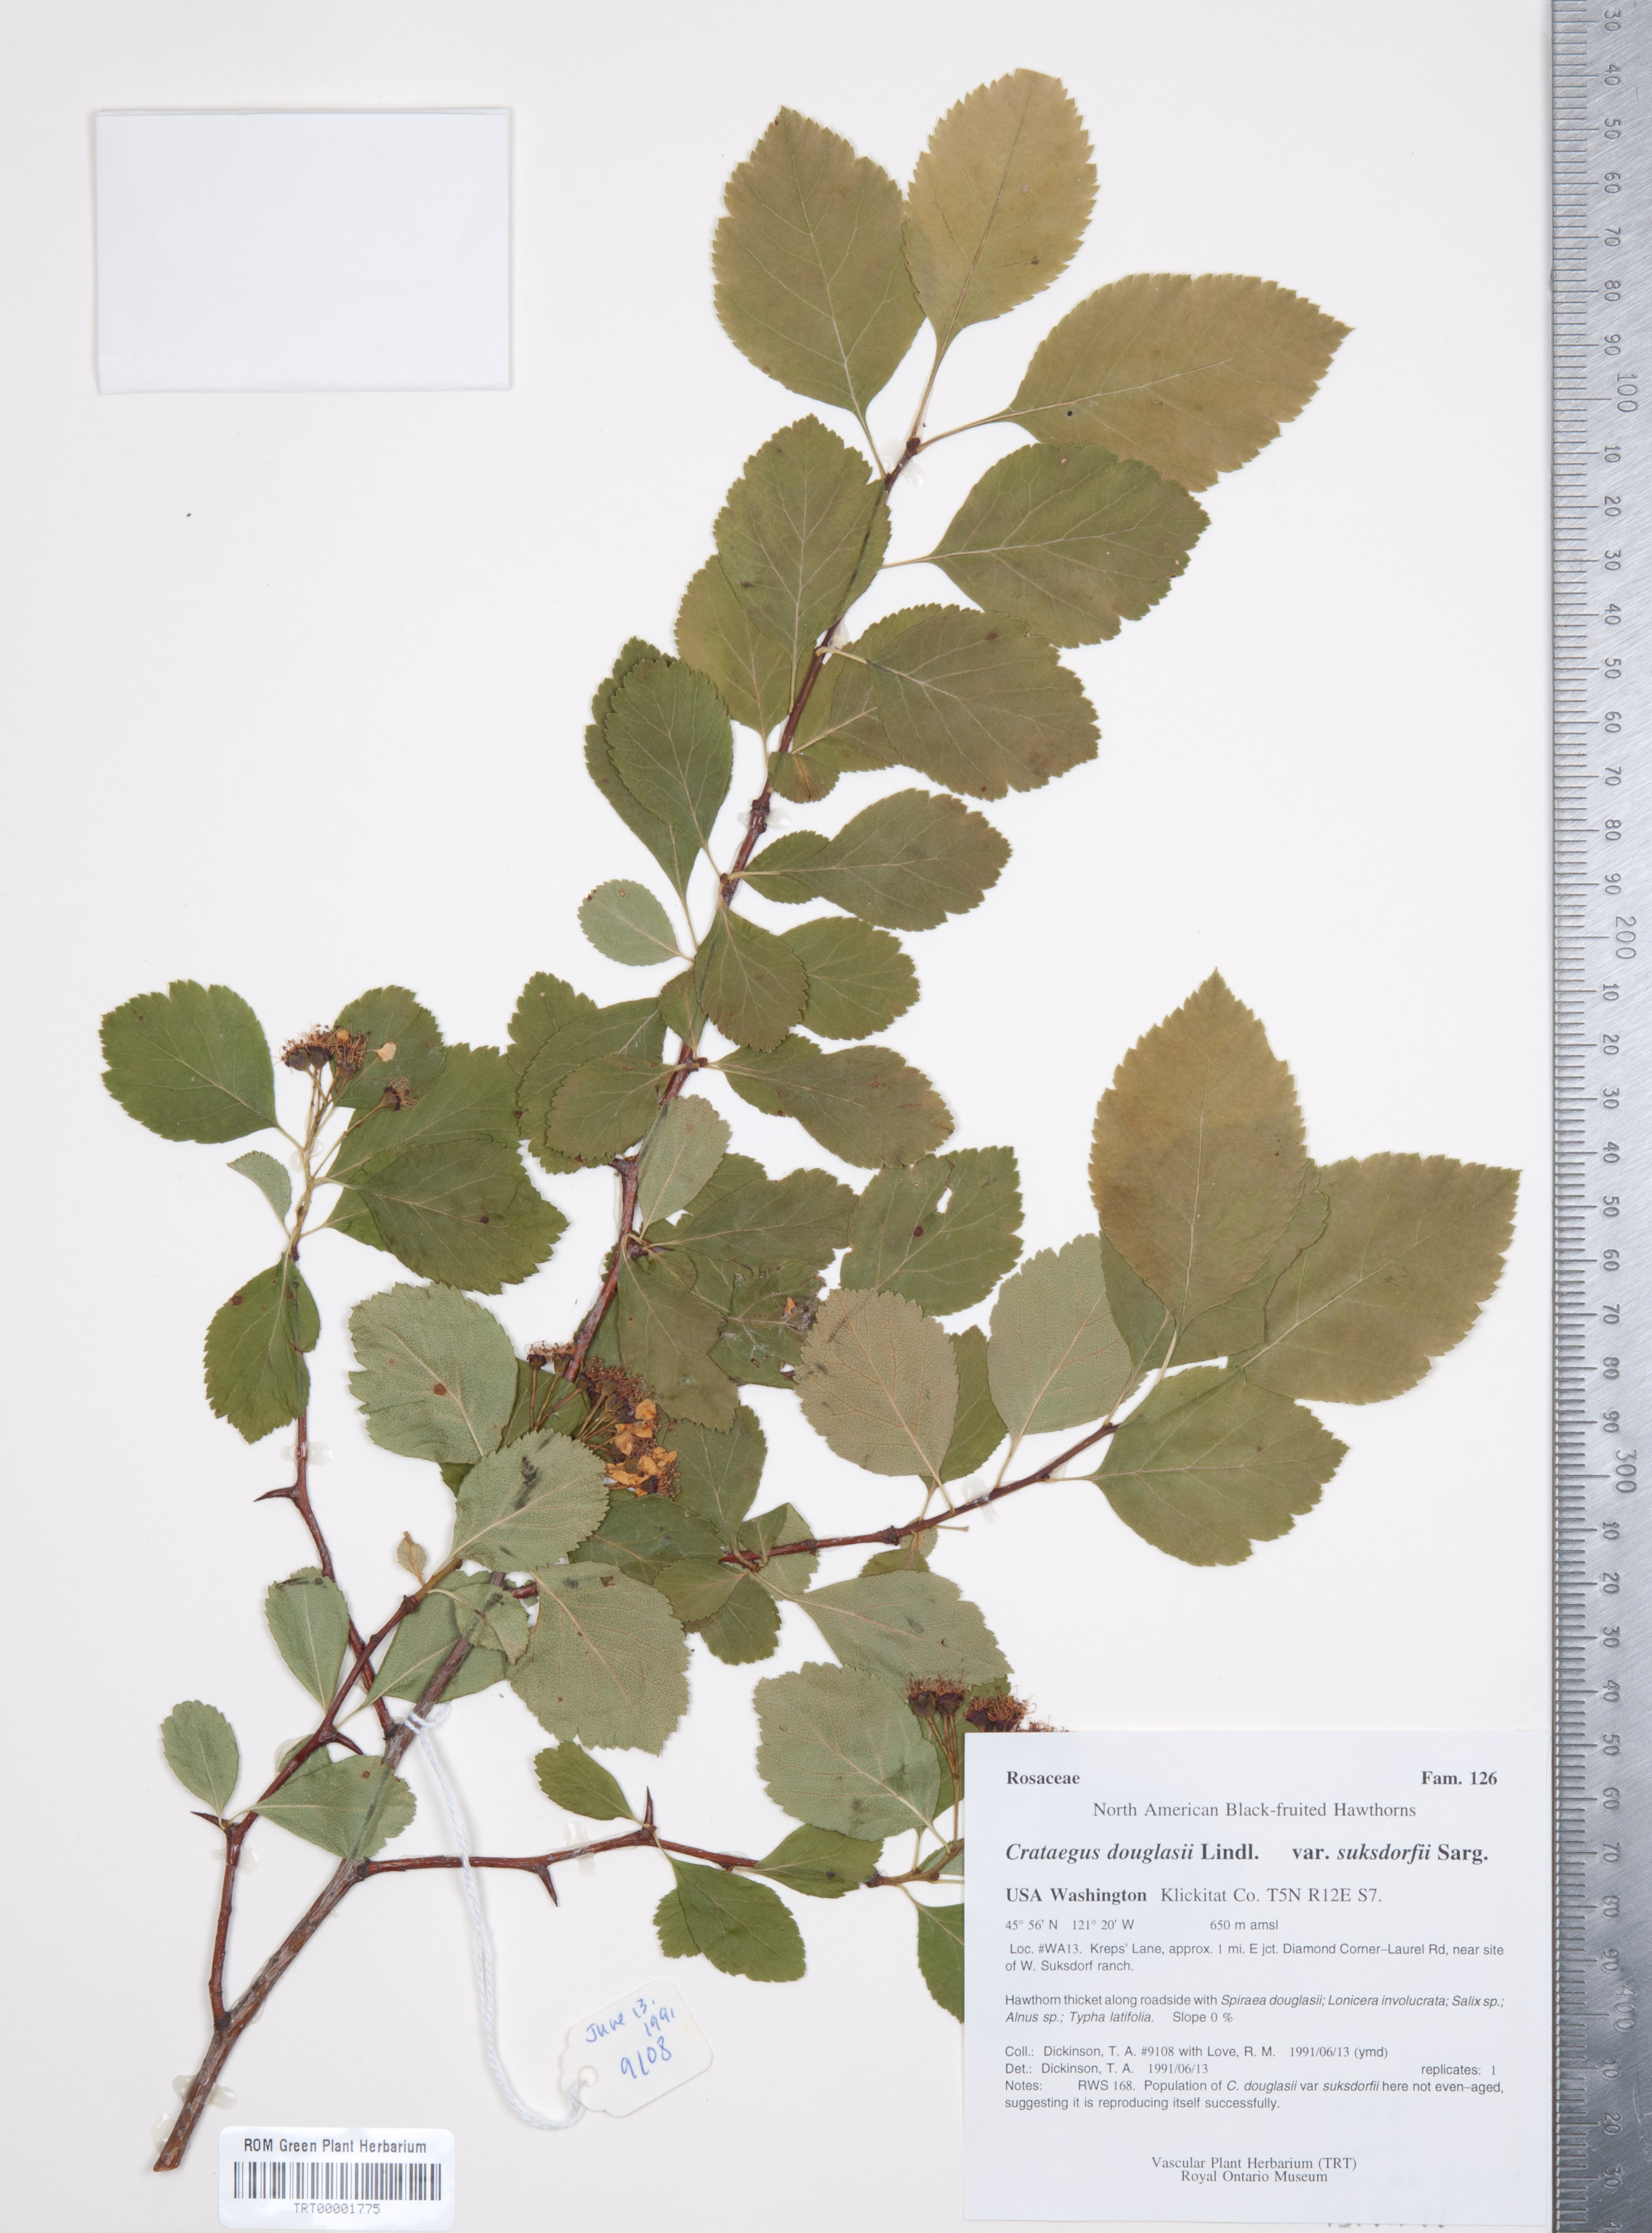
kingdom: Plantae
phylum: Tracheophyta
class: Magnoliopsida
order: Rosales
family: Rosaceae
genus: Crataegus
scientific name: Crataegus gaylussacia
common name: Huckleberry hawthorn
